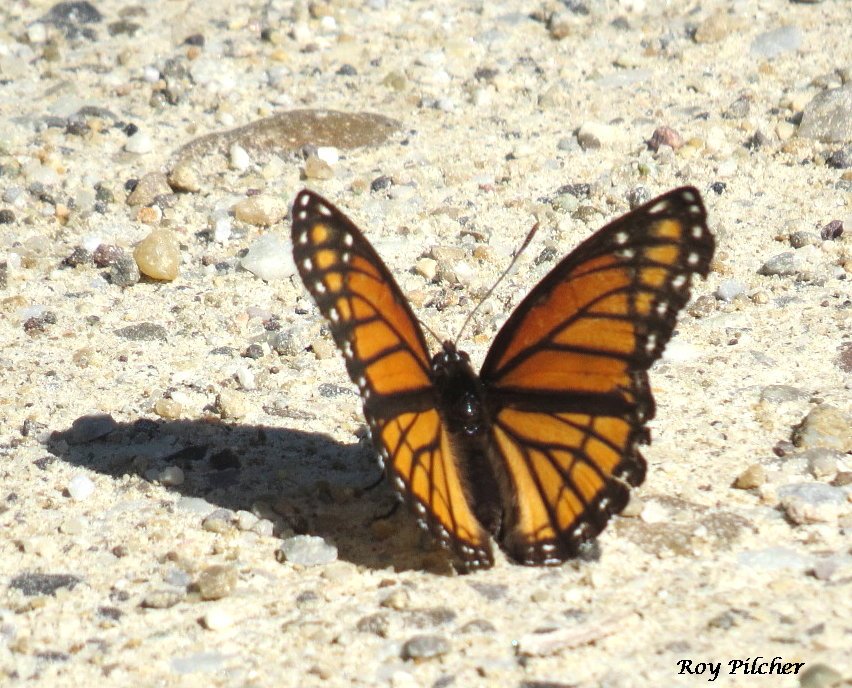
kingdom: Animalia
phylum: Arthropoda
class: Insecta
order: Lepidoptera
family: Nymphalidae
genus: Limenitis
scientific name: Limenitis archippus
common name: Viceroy
